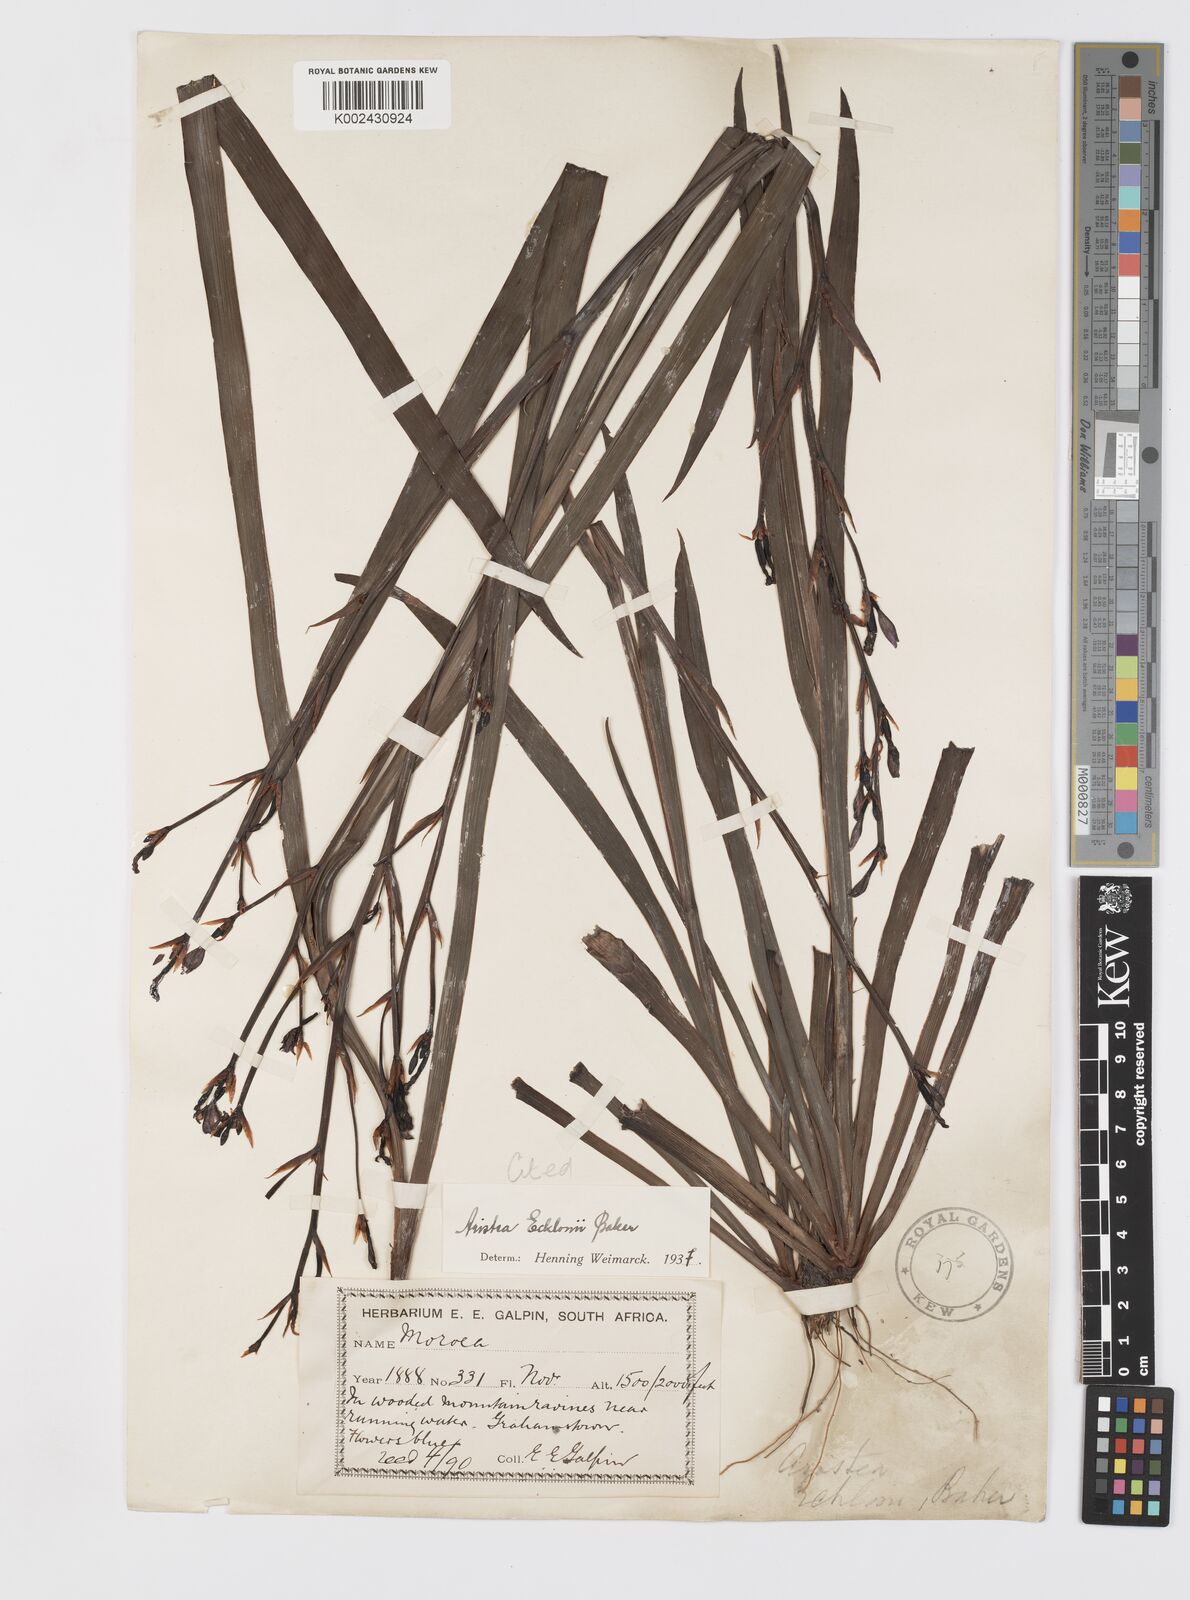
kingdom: Plantae
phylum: Tracheophyta
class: Liliopsida
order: Asparagales
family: Iridaceae
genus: Aristea
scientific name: Aristea ecklonii
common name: Blue corn-lily
